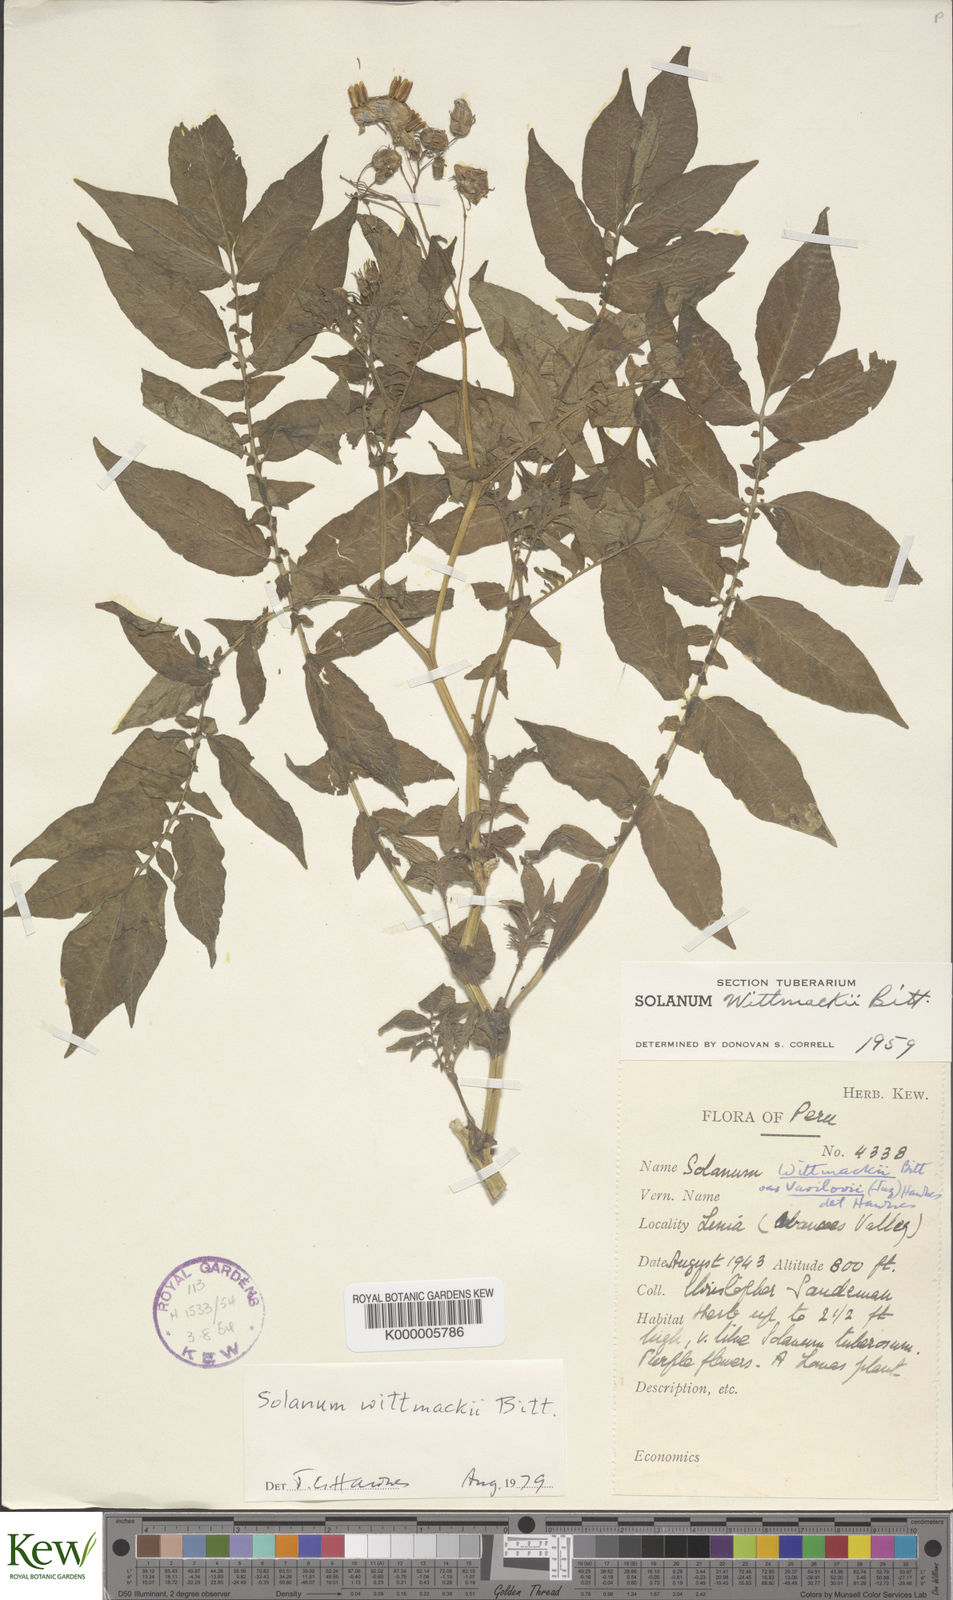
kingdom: Plantae
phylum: Tracheophyta
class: Magnoliopsida
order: Solanales
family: Solanaceae
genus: Solanum
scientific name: Solanum wittmackii
